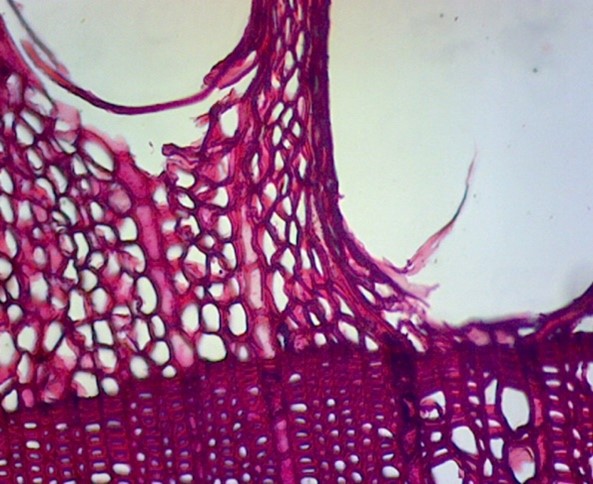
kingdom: Plantae
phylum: Tracheophyta
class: Magnoliopsida
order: Fagales
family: Fagaceae
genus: Castanea
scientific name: Castanea dentata
